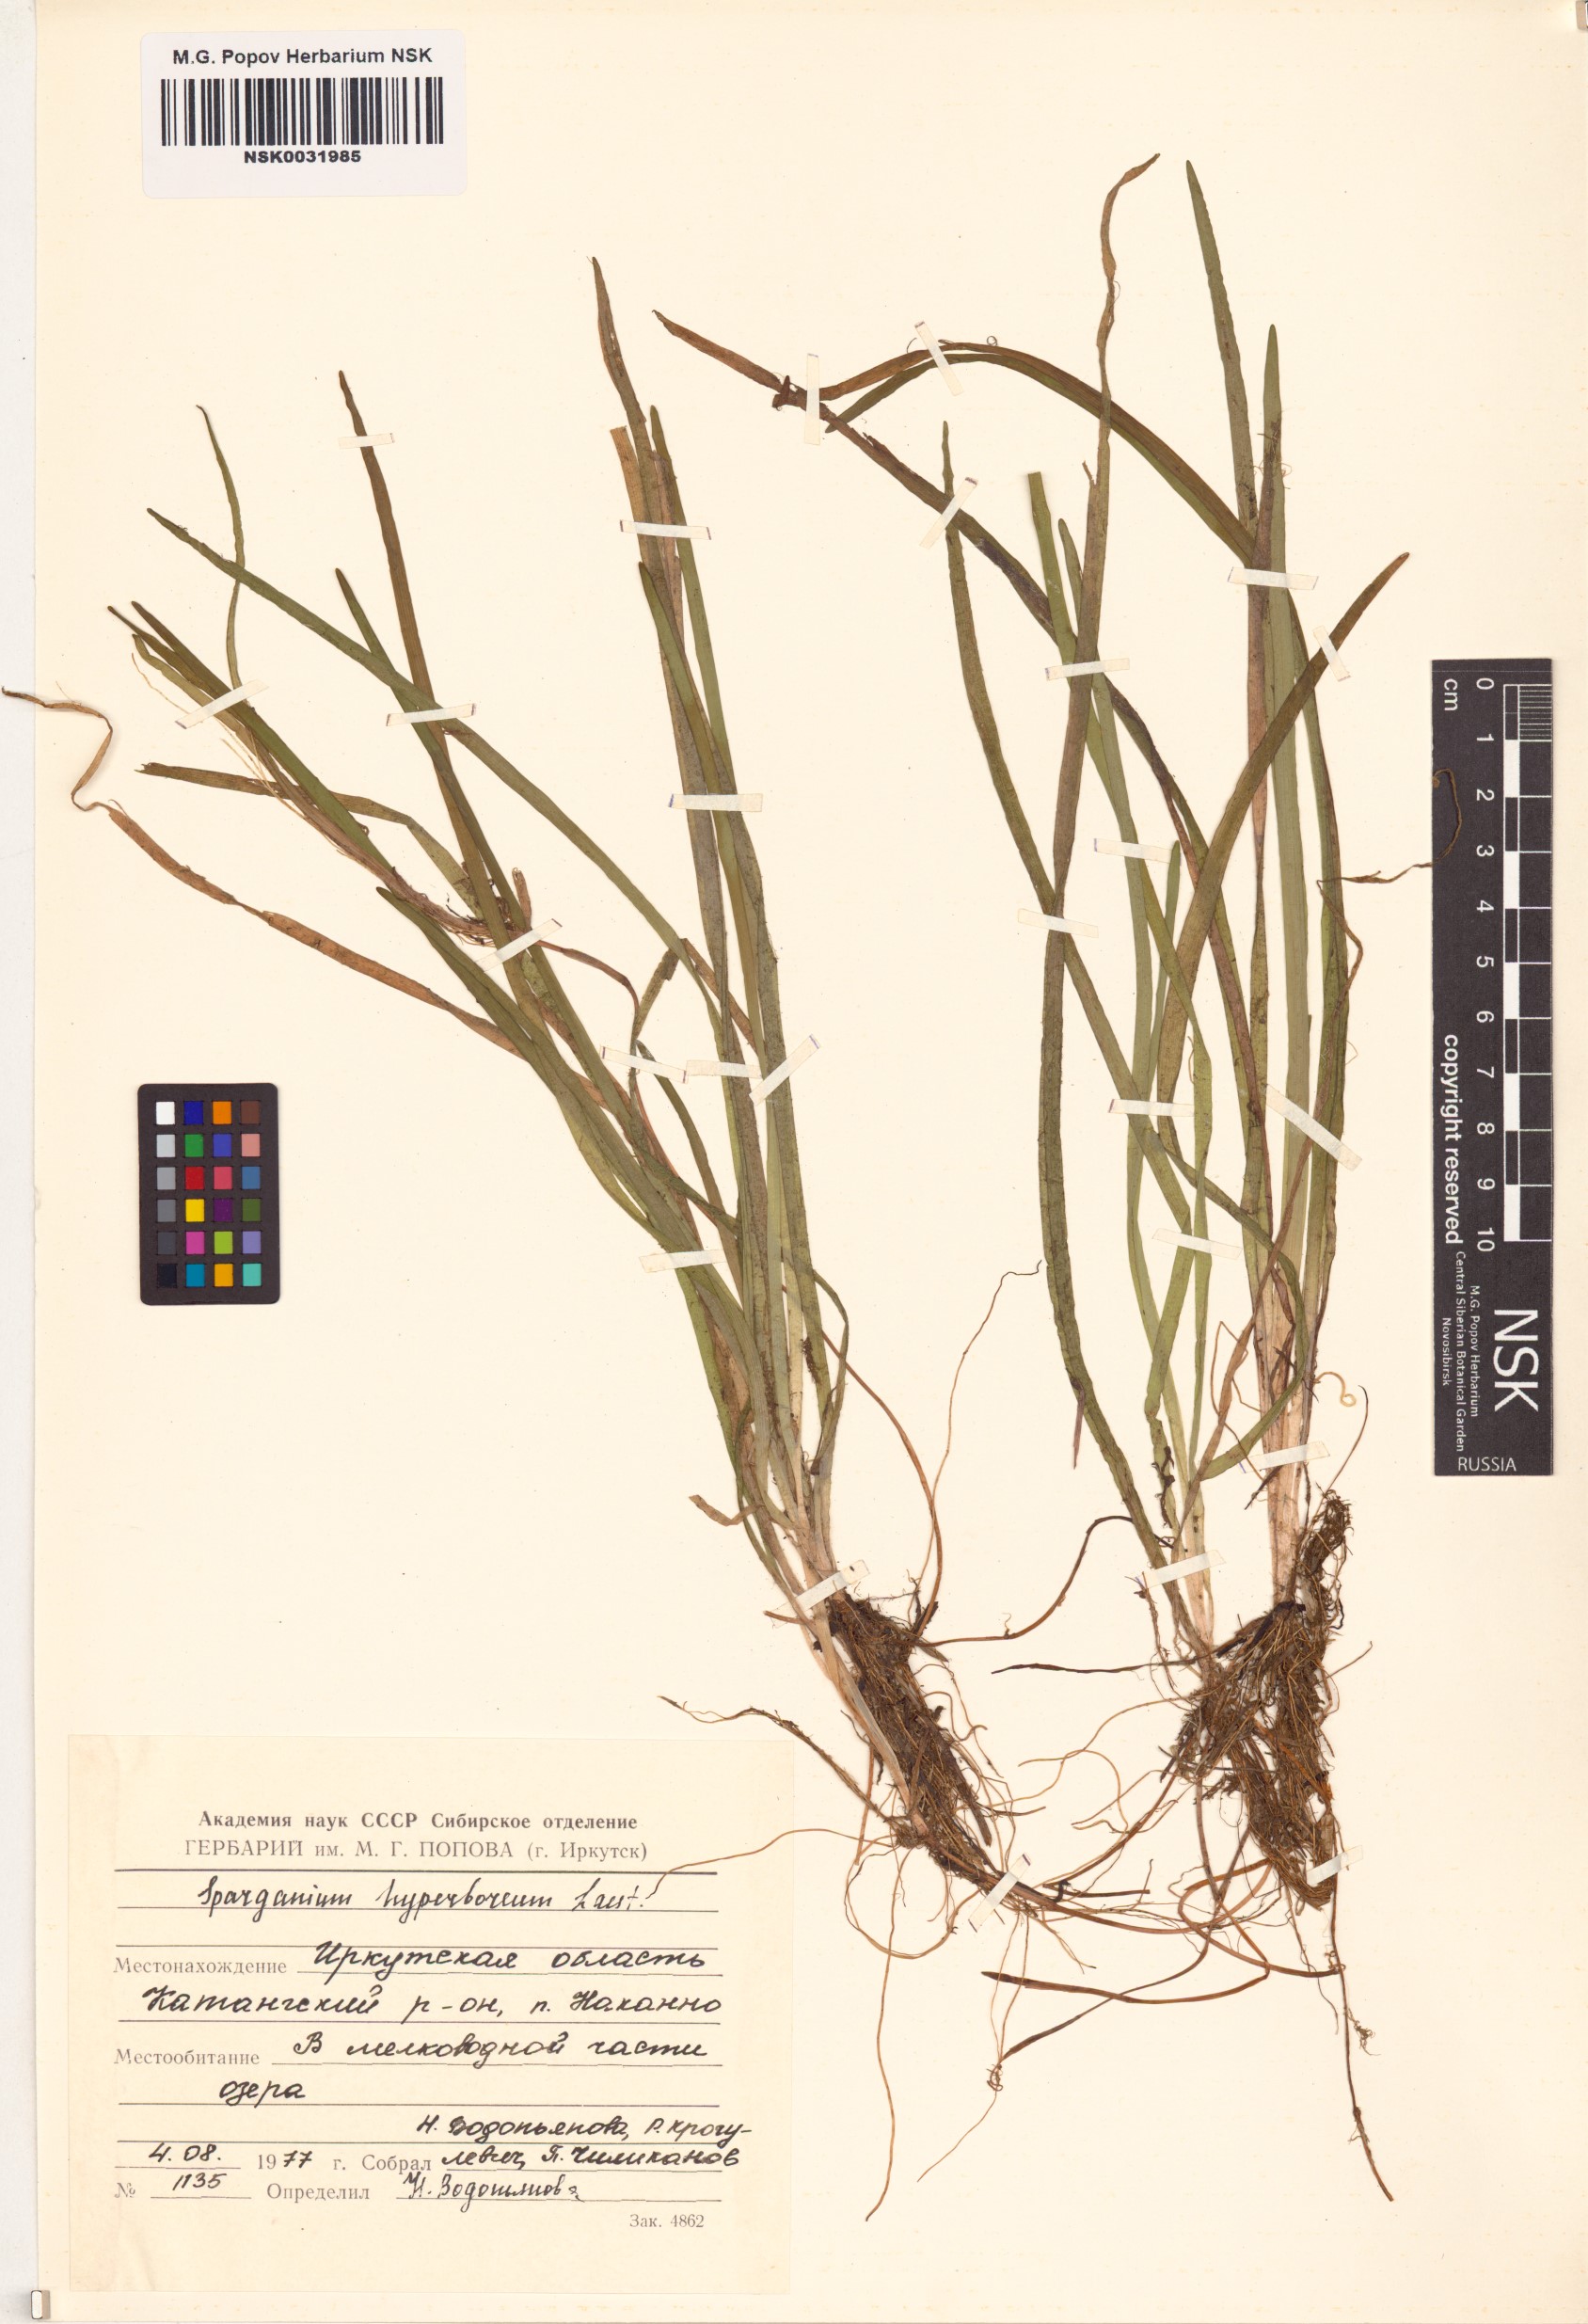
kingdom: Plantae
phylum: Tracheophyta
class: Liliopsida
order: Poales
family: Typhaceae
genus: Sparganium
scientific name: Sparganium hyperboreum
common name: Arctic burreed
